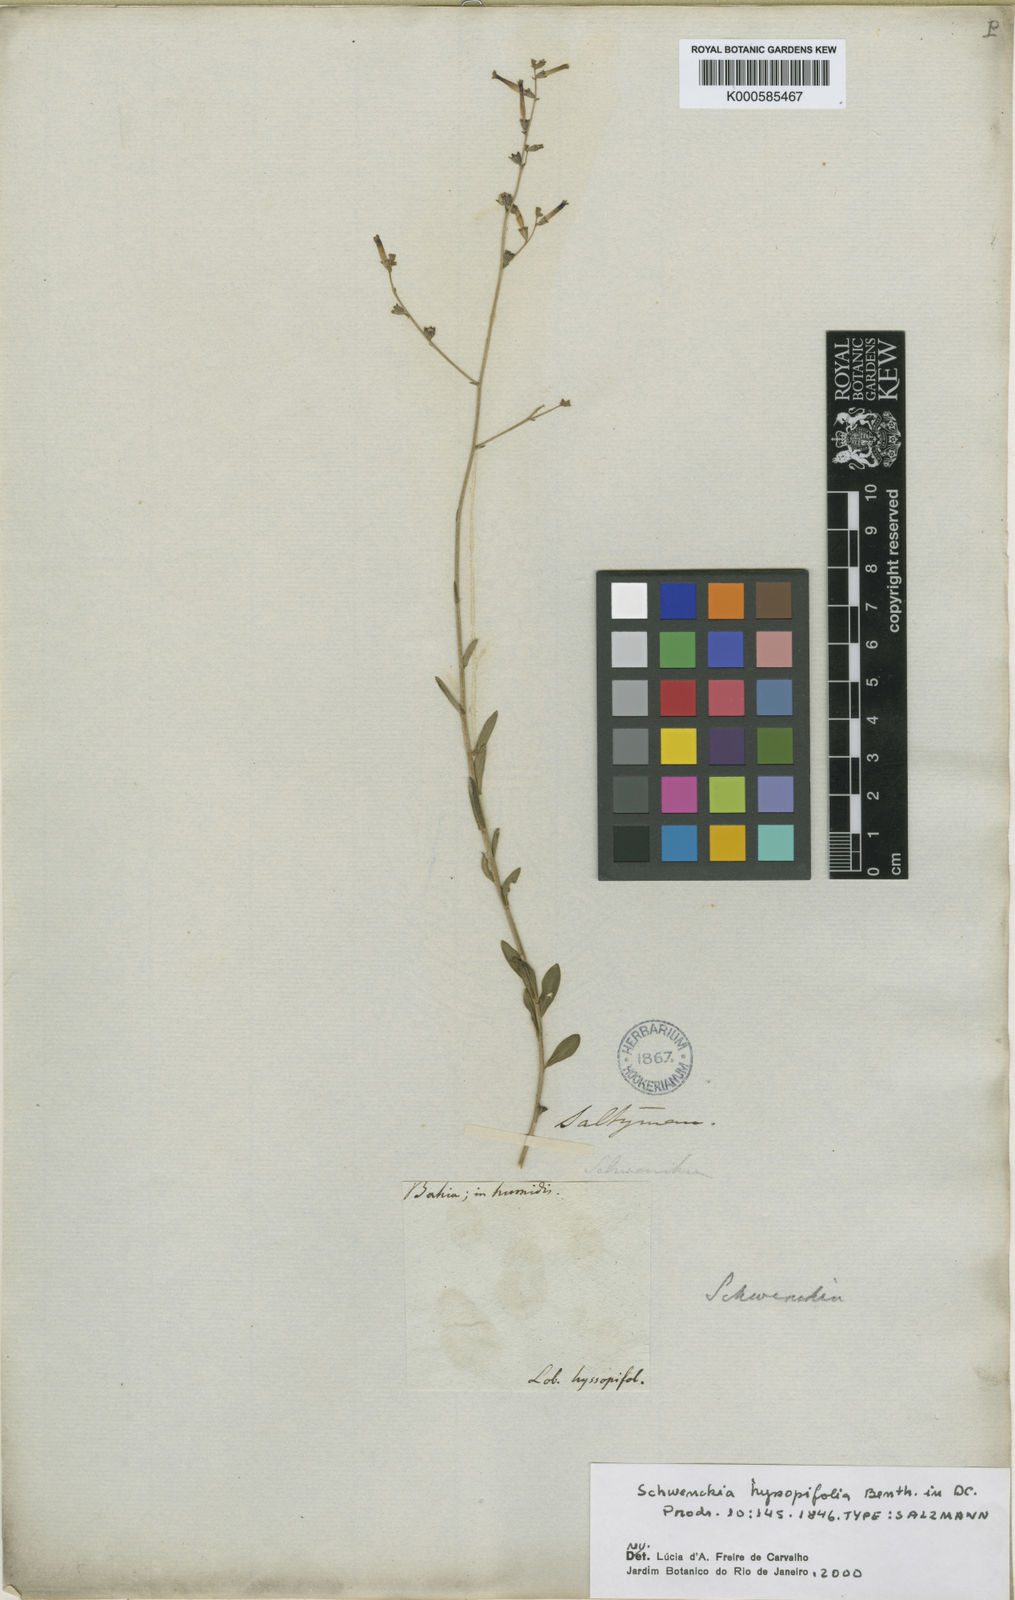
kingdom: Plantae
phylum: Tracheophyta
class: Magnoliopsida
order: Solanales
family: Solanaceae
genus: Schwenckia
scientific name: Schwenckia hyssopifolia
